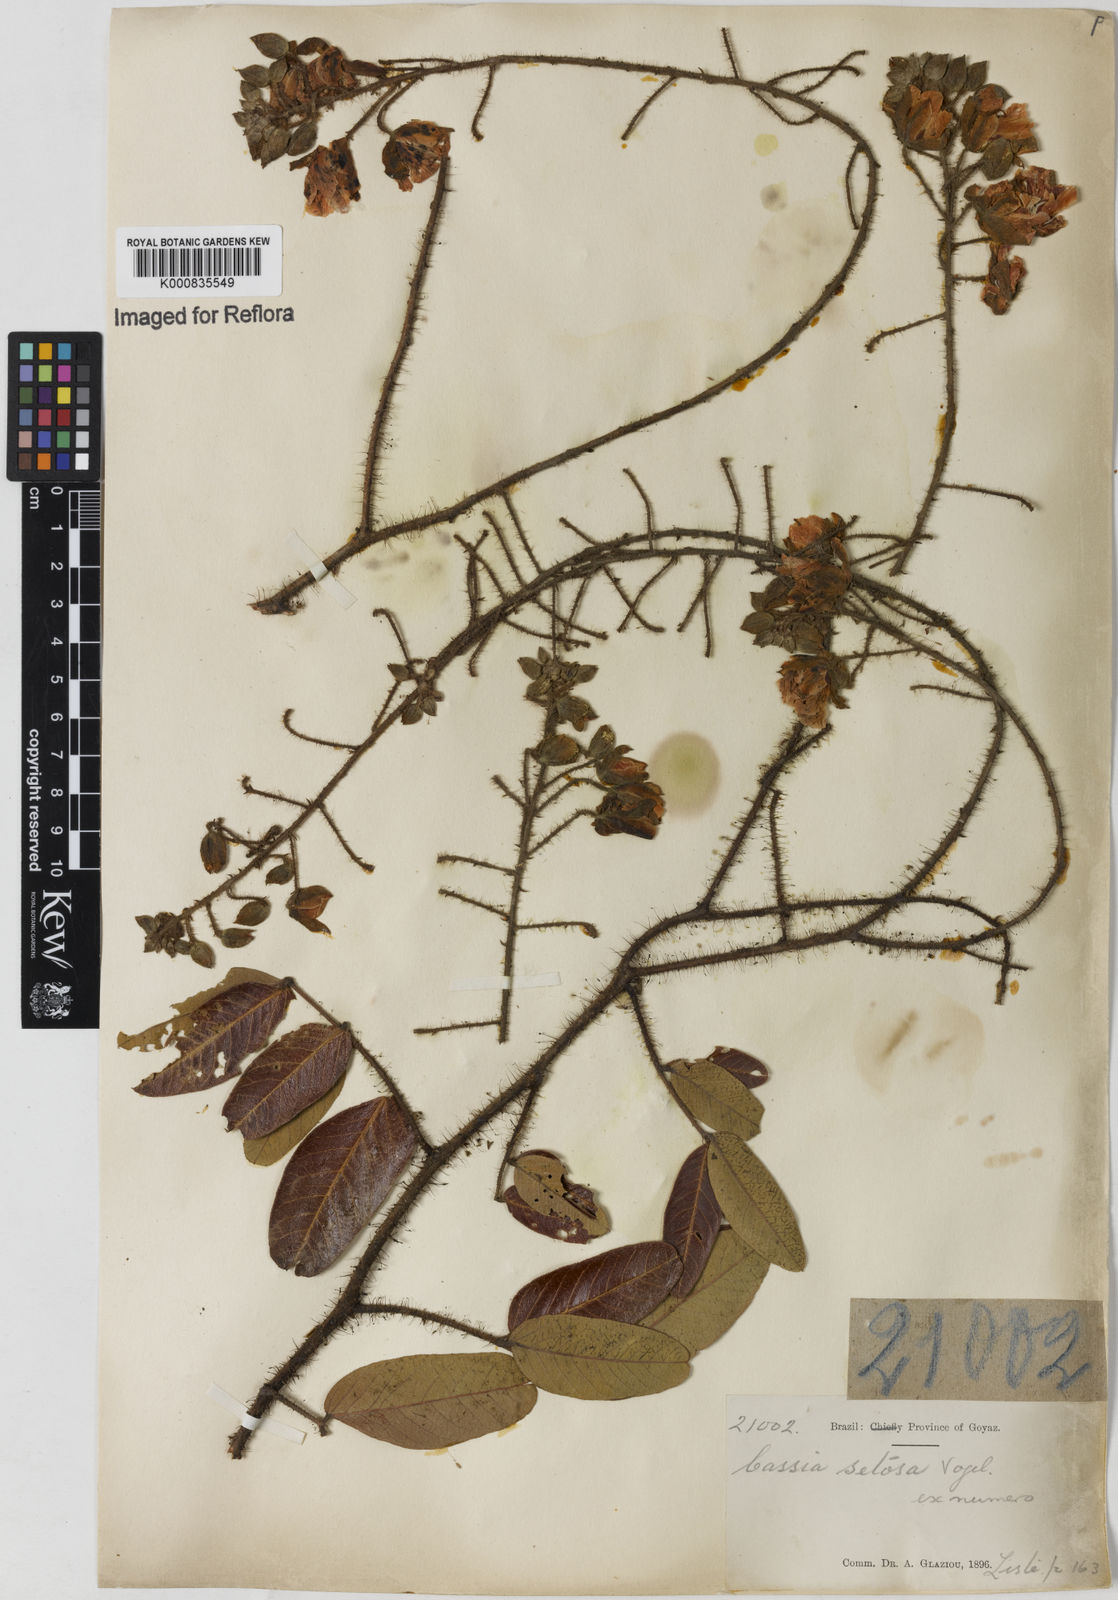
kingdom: Plantae
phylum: Tracheophyta
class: Magnoliopsida
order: Fabales
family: Fabaceae
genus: Chamaecrista
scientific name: Chamaecrista setosa
